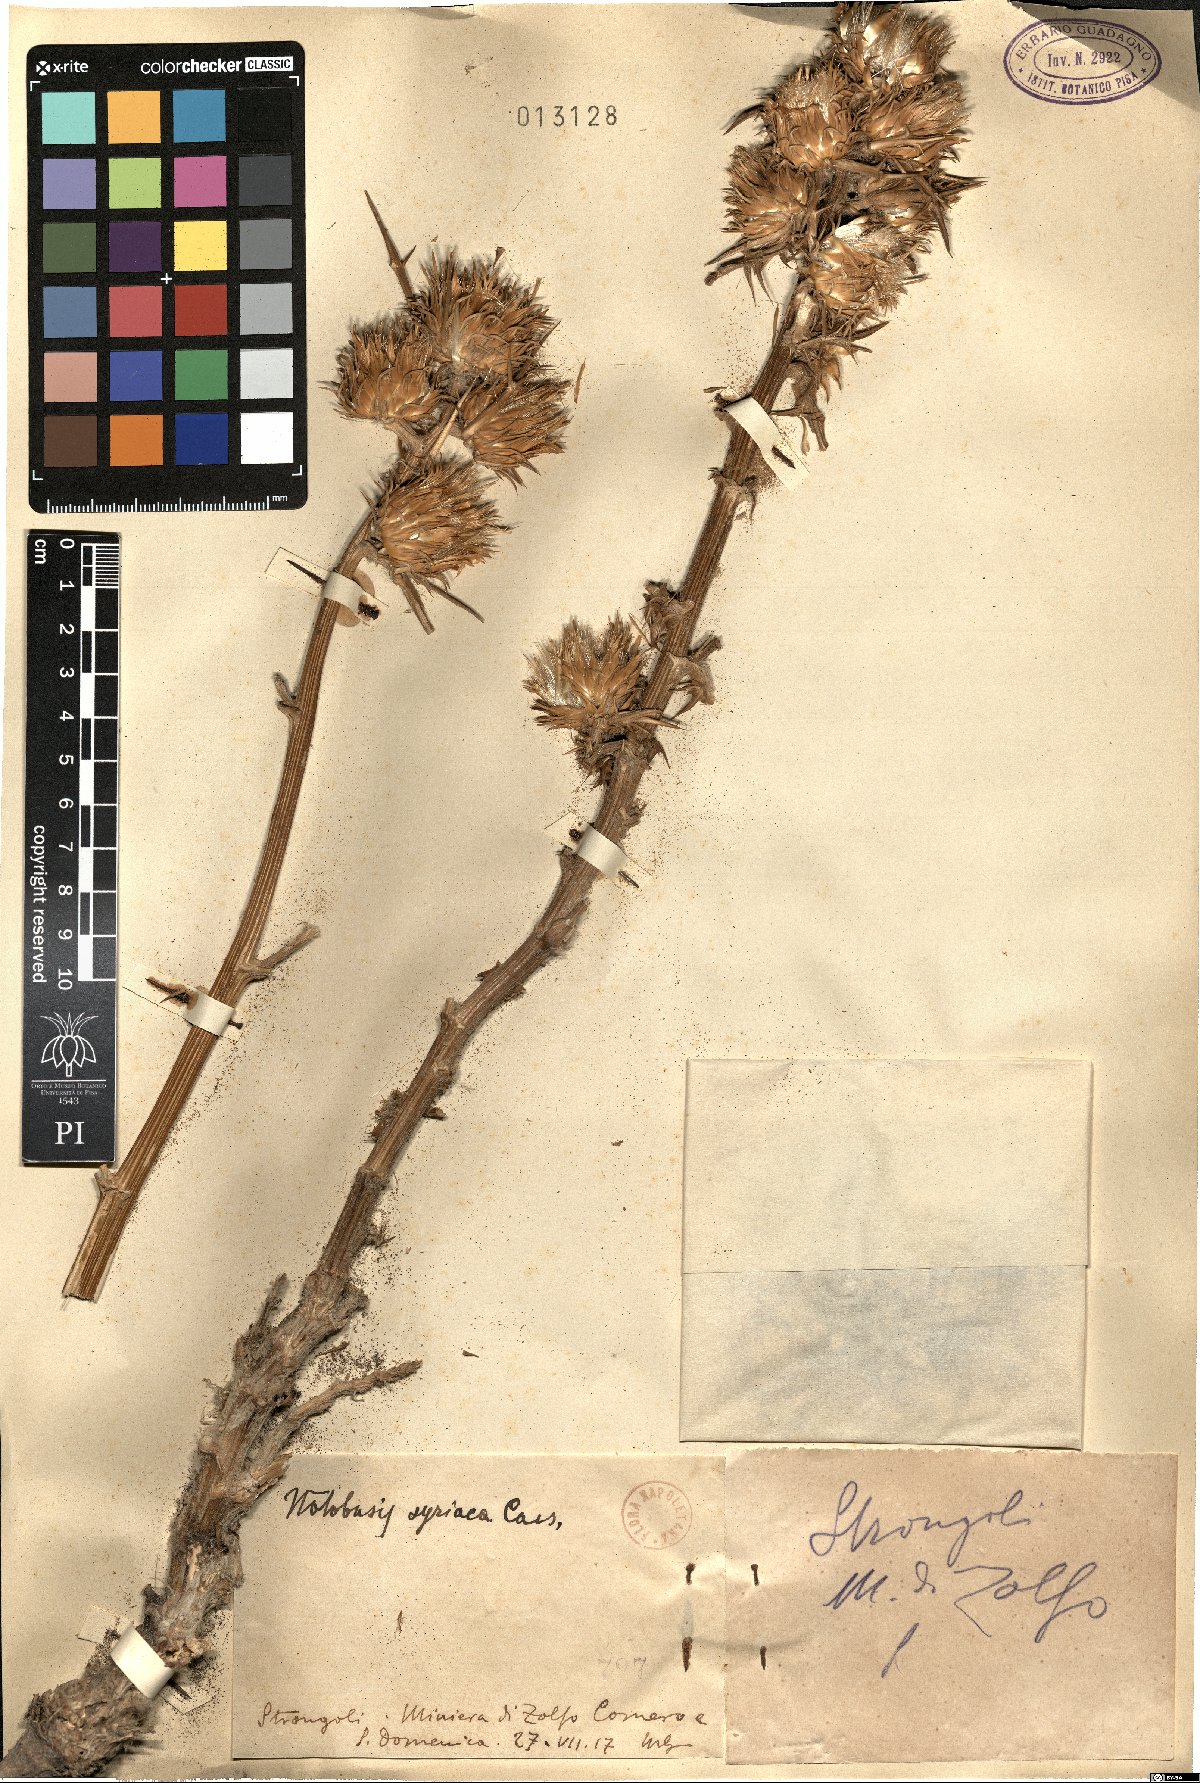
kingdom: Plantae
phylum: Tracheophyta
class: Magnoliopsida
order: Asterales
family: Asteraceae
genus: Notobasis
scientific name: Notobasis syriaca
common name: Syrian thistle
